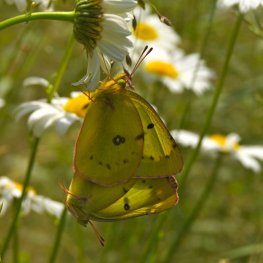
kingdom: Animalia
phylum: Arthropoda
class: Insecta
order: Lepidoptera
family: Pieridae
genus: Colias
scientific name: Colias philodice
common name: Clouded Sulphur
